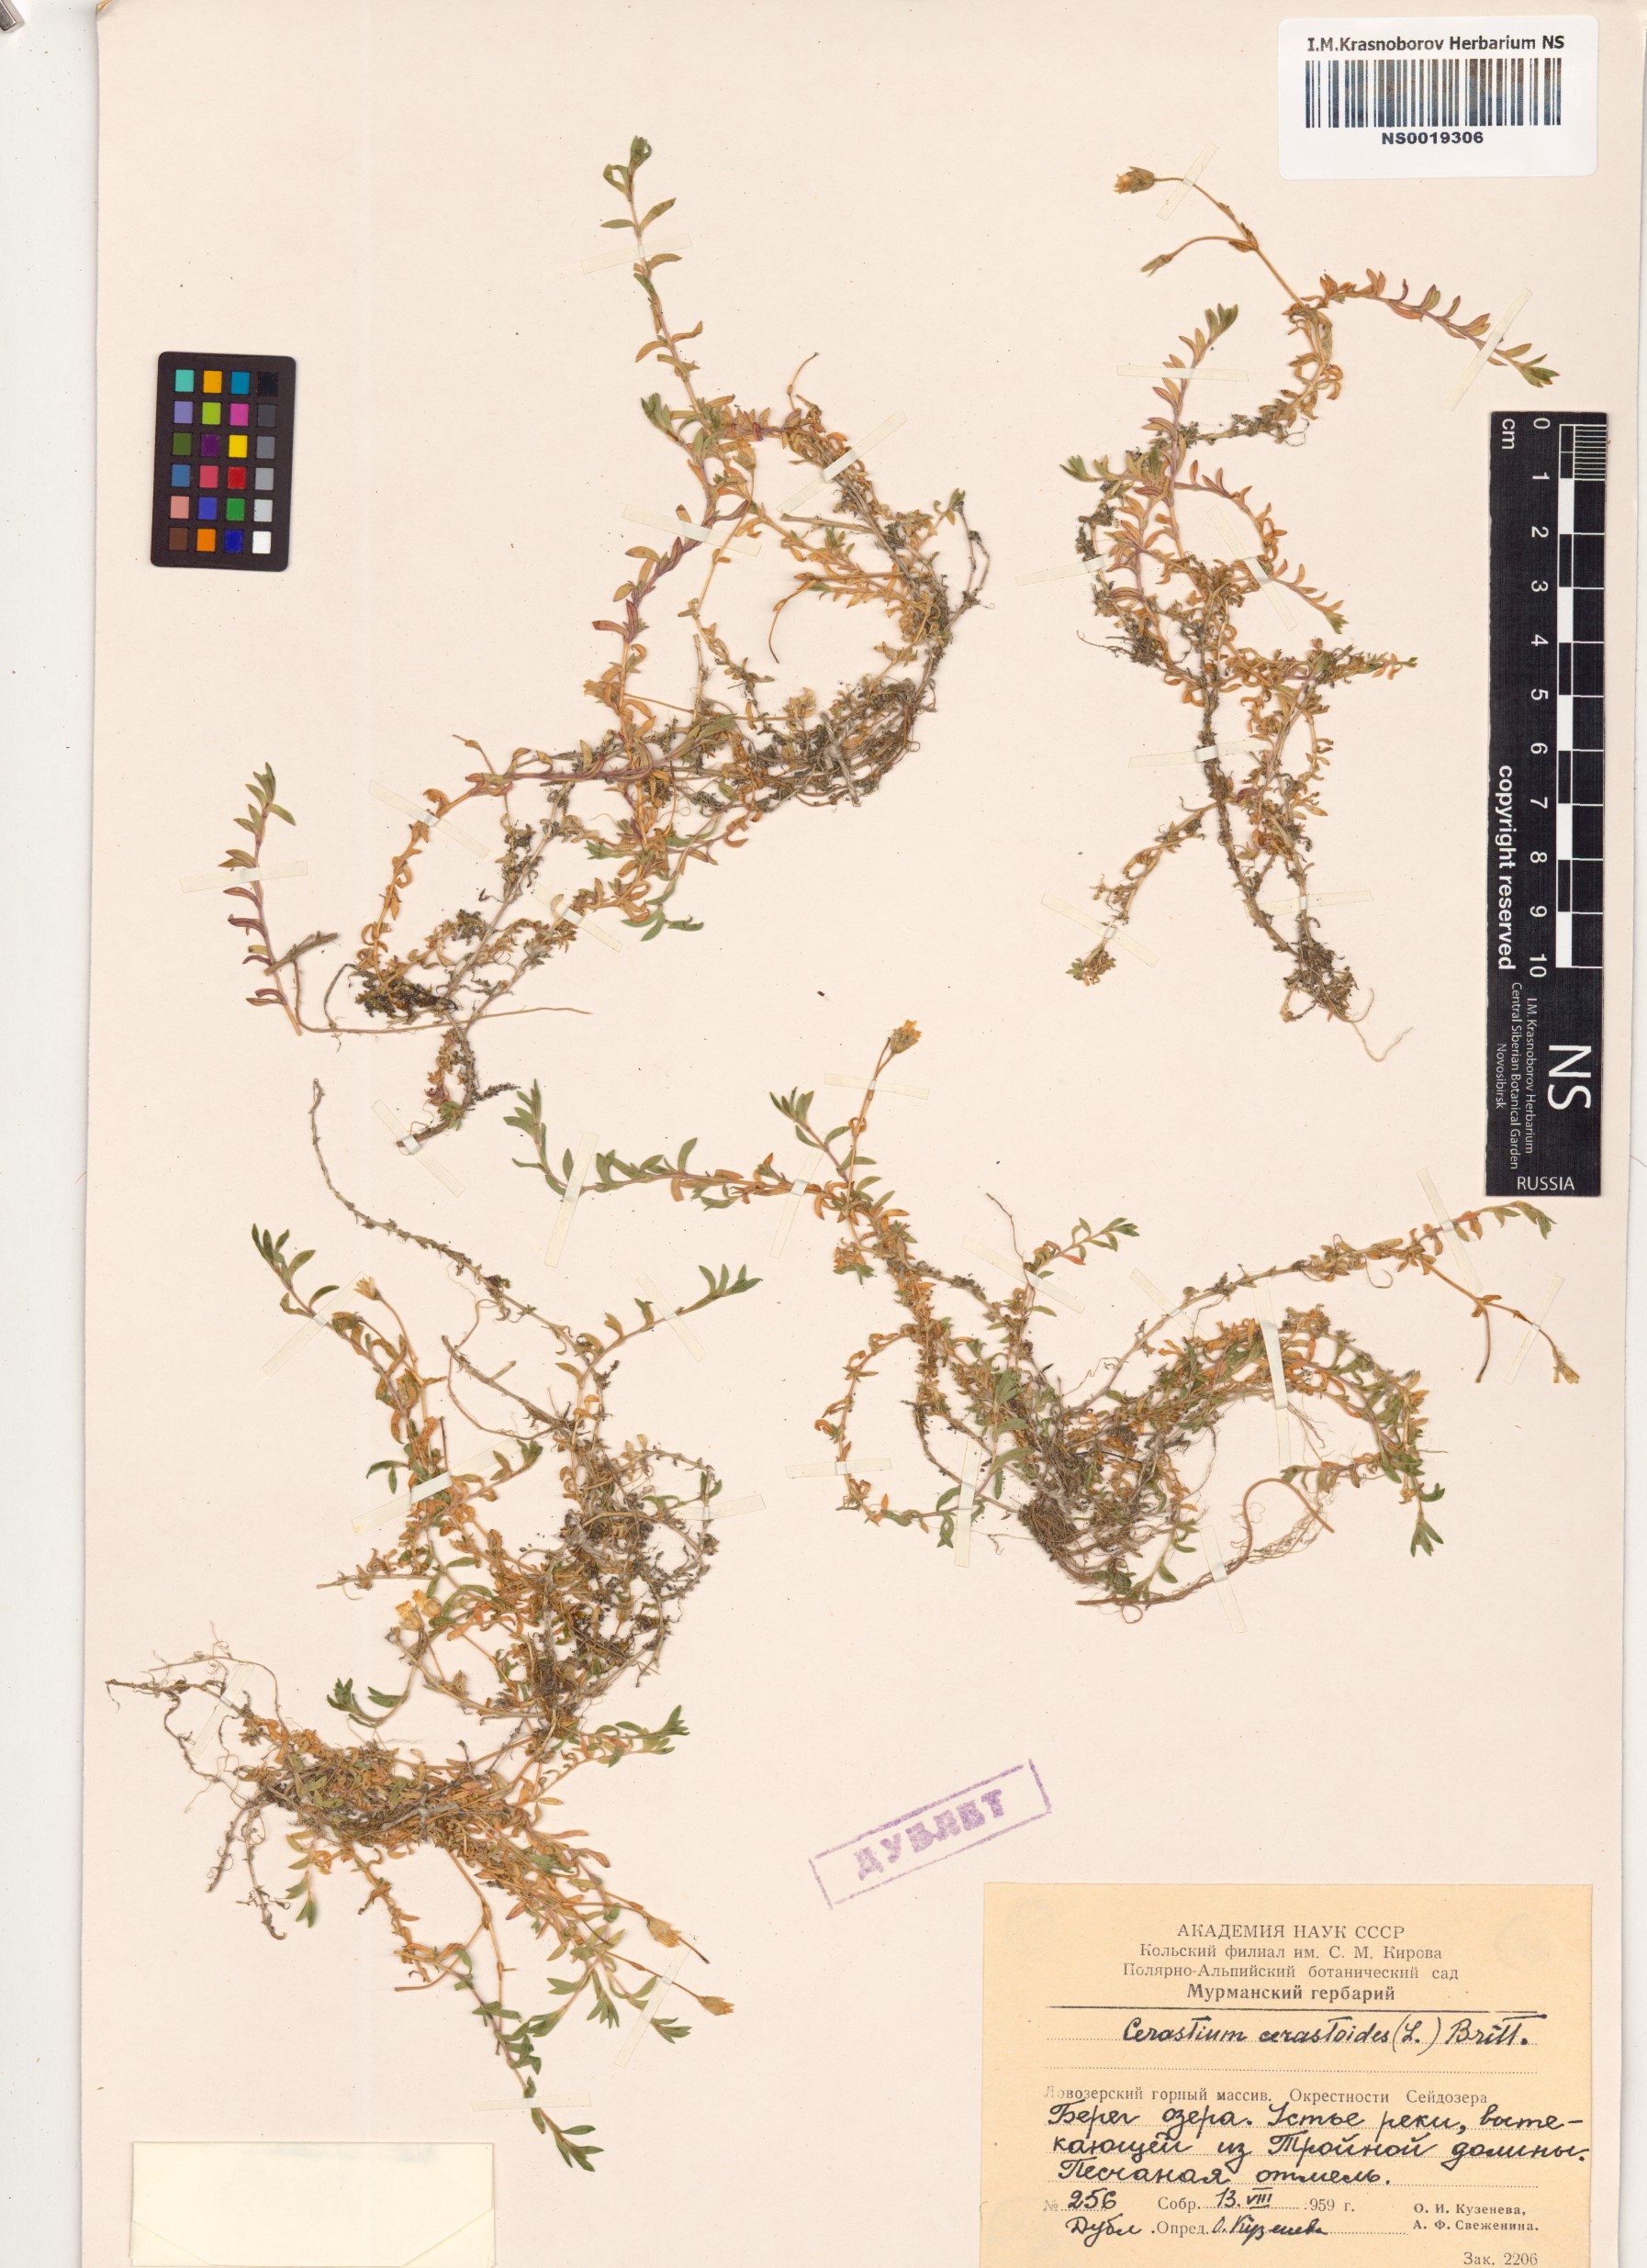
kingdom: Plantae
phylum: Tracheophyta
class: Magnoliopsida
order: Caryophyllales
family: Caryophyllaceae
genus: Dichodon
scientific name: Dichodon cerastoides
